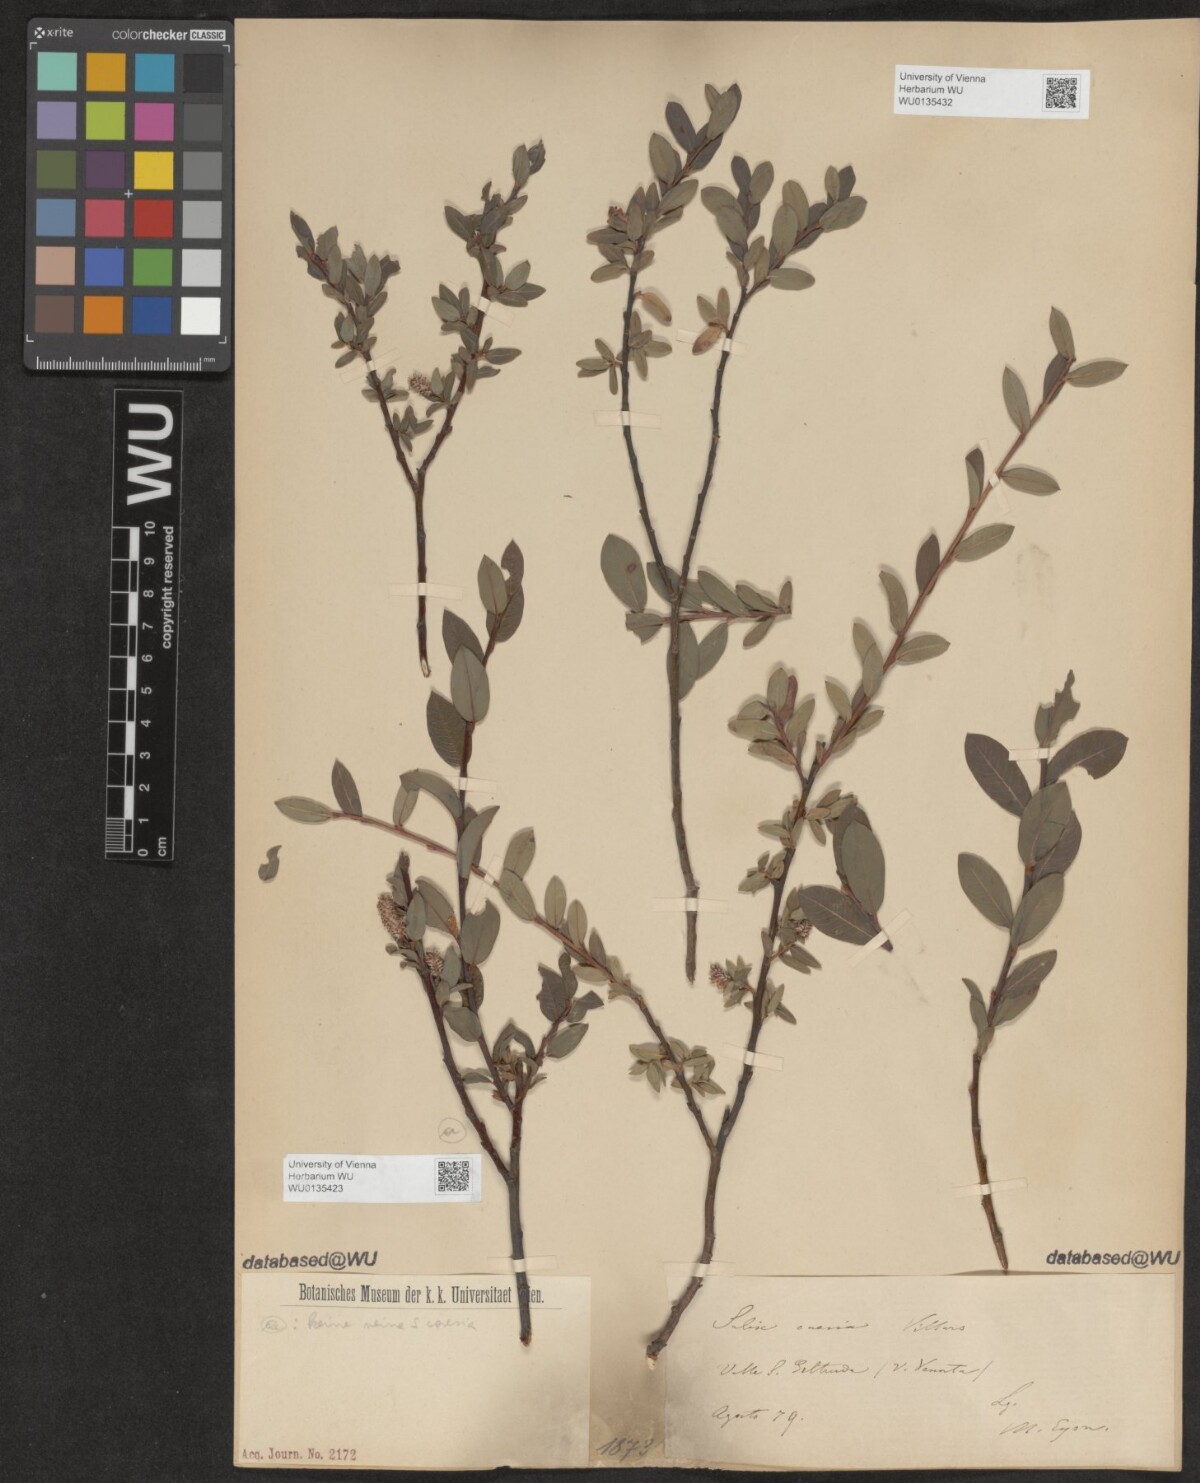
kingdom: Plantae
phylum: Tracheophyta
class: Magnoliopsida
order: Malpighiales
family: Salicaceae
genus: Salix
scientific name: Salix caesia
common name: Blue willow
